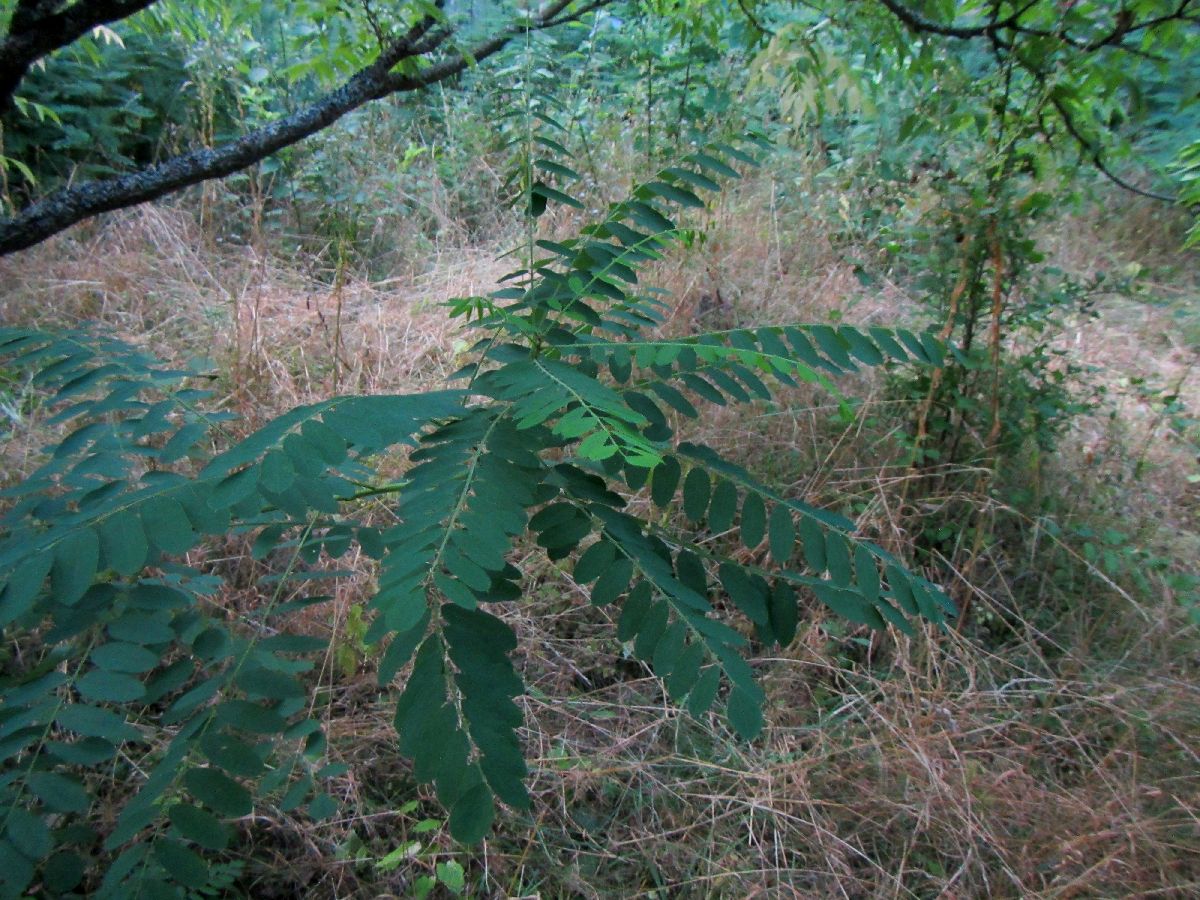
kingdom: Plantae
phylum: Tracheophyta
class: Magnoliopsida
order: Fabales
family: Fabaceae
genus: Amorpha
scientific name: Amorpha fruticosa
